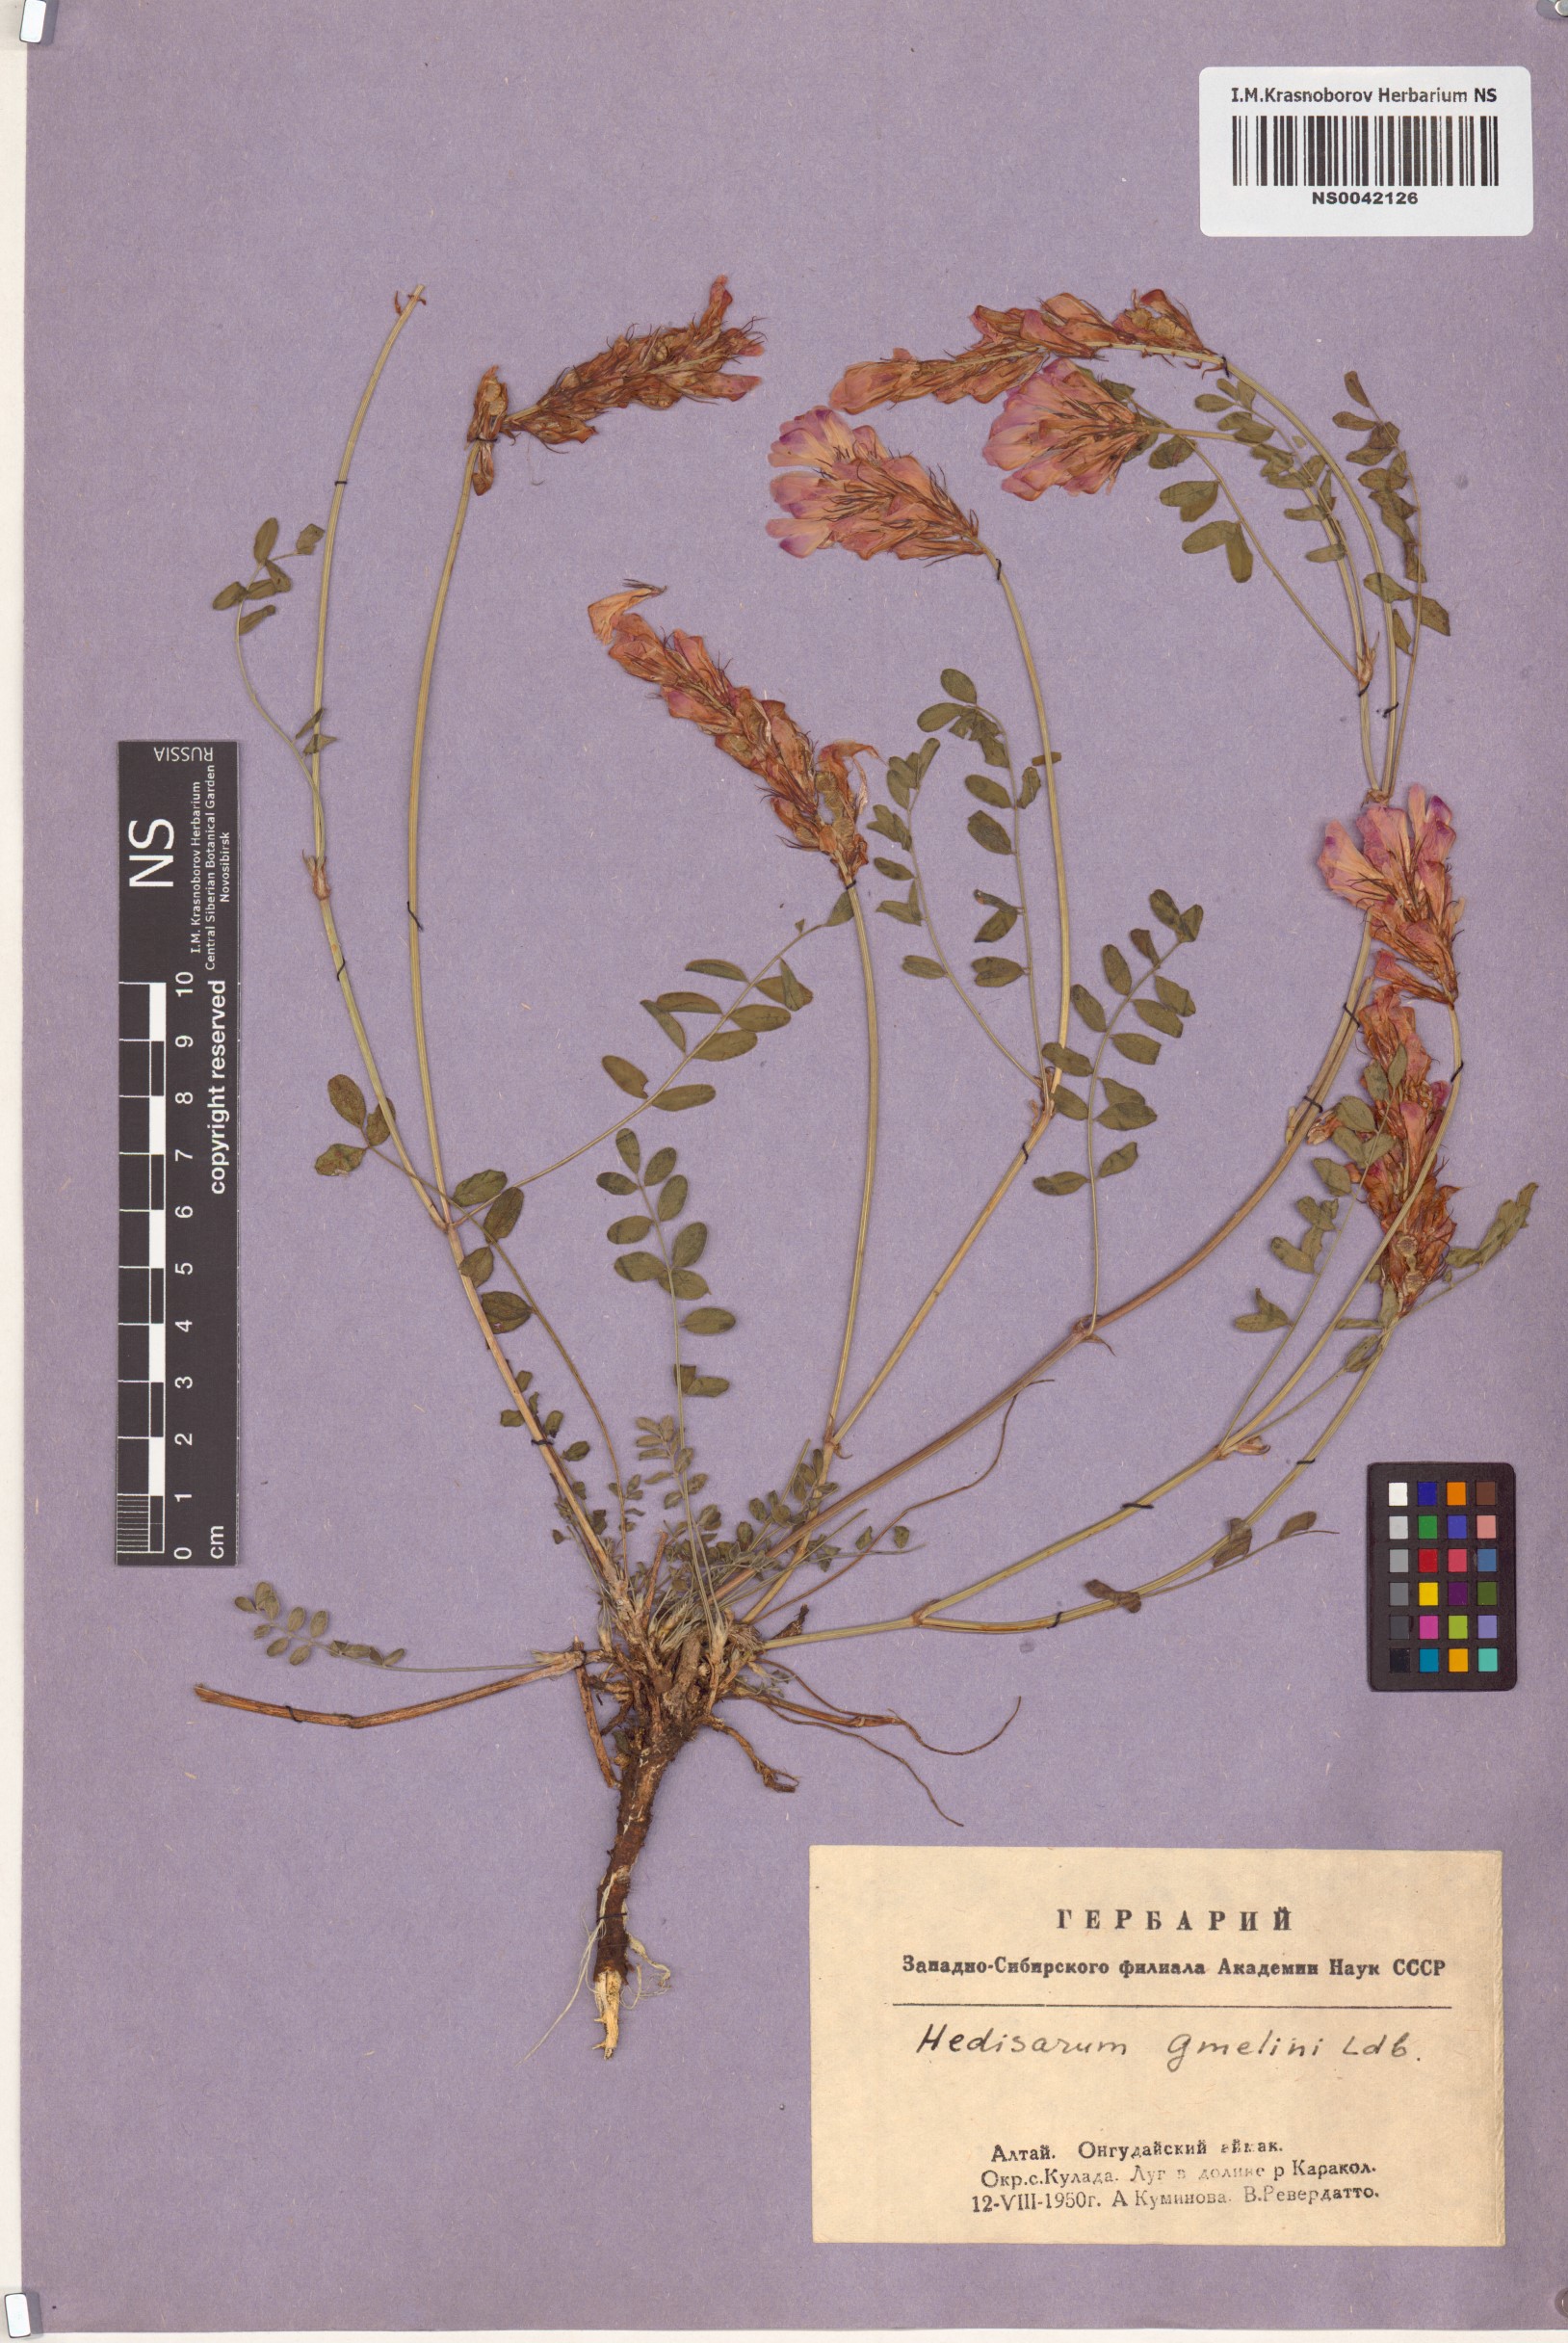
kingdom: Plantae
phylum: Tracheophyta
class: Magnoliopsida
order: Fabales
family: Fabaceae
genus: Hedysarum
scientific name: Hedysarum gmelinii
